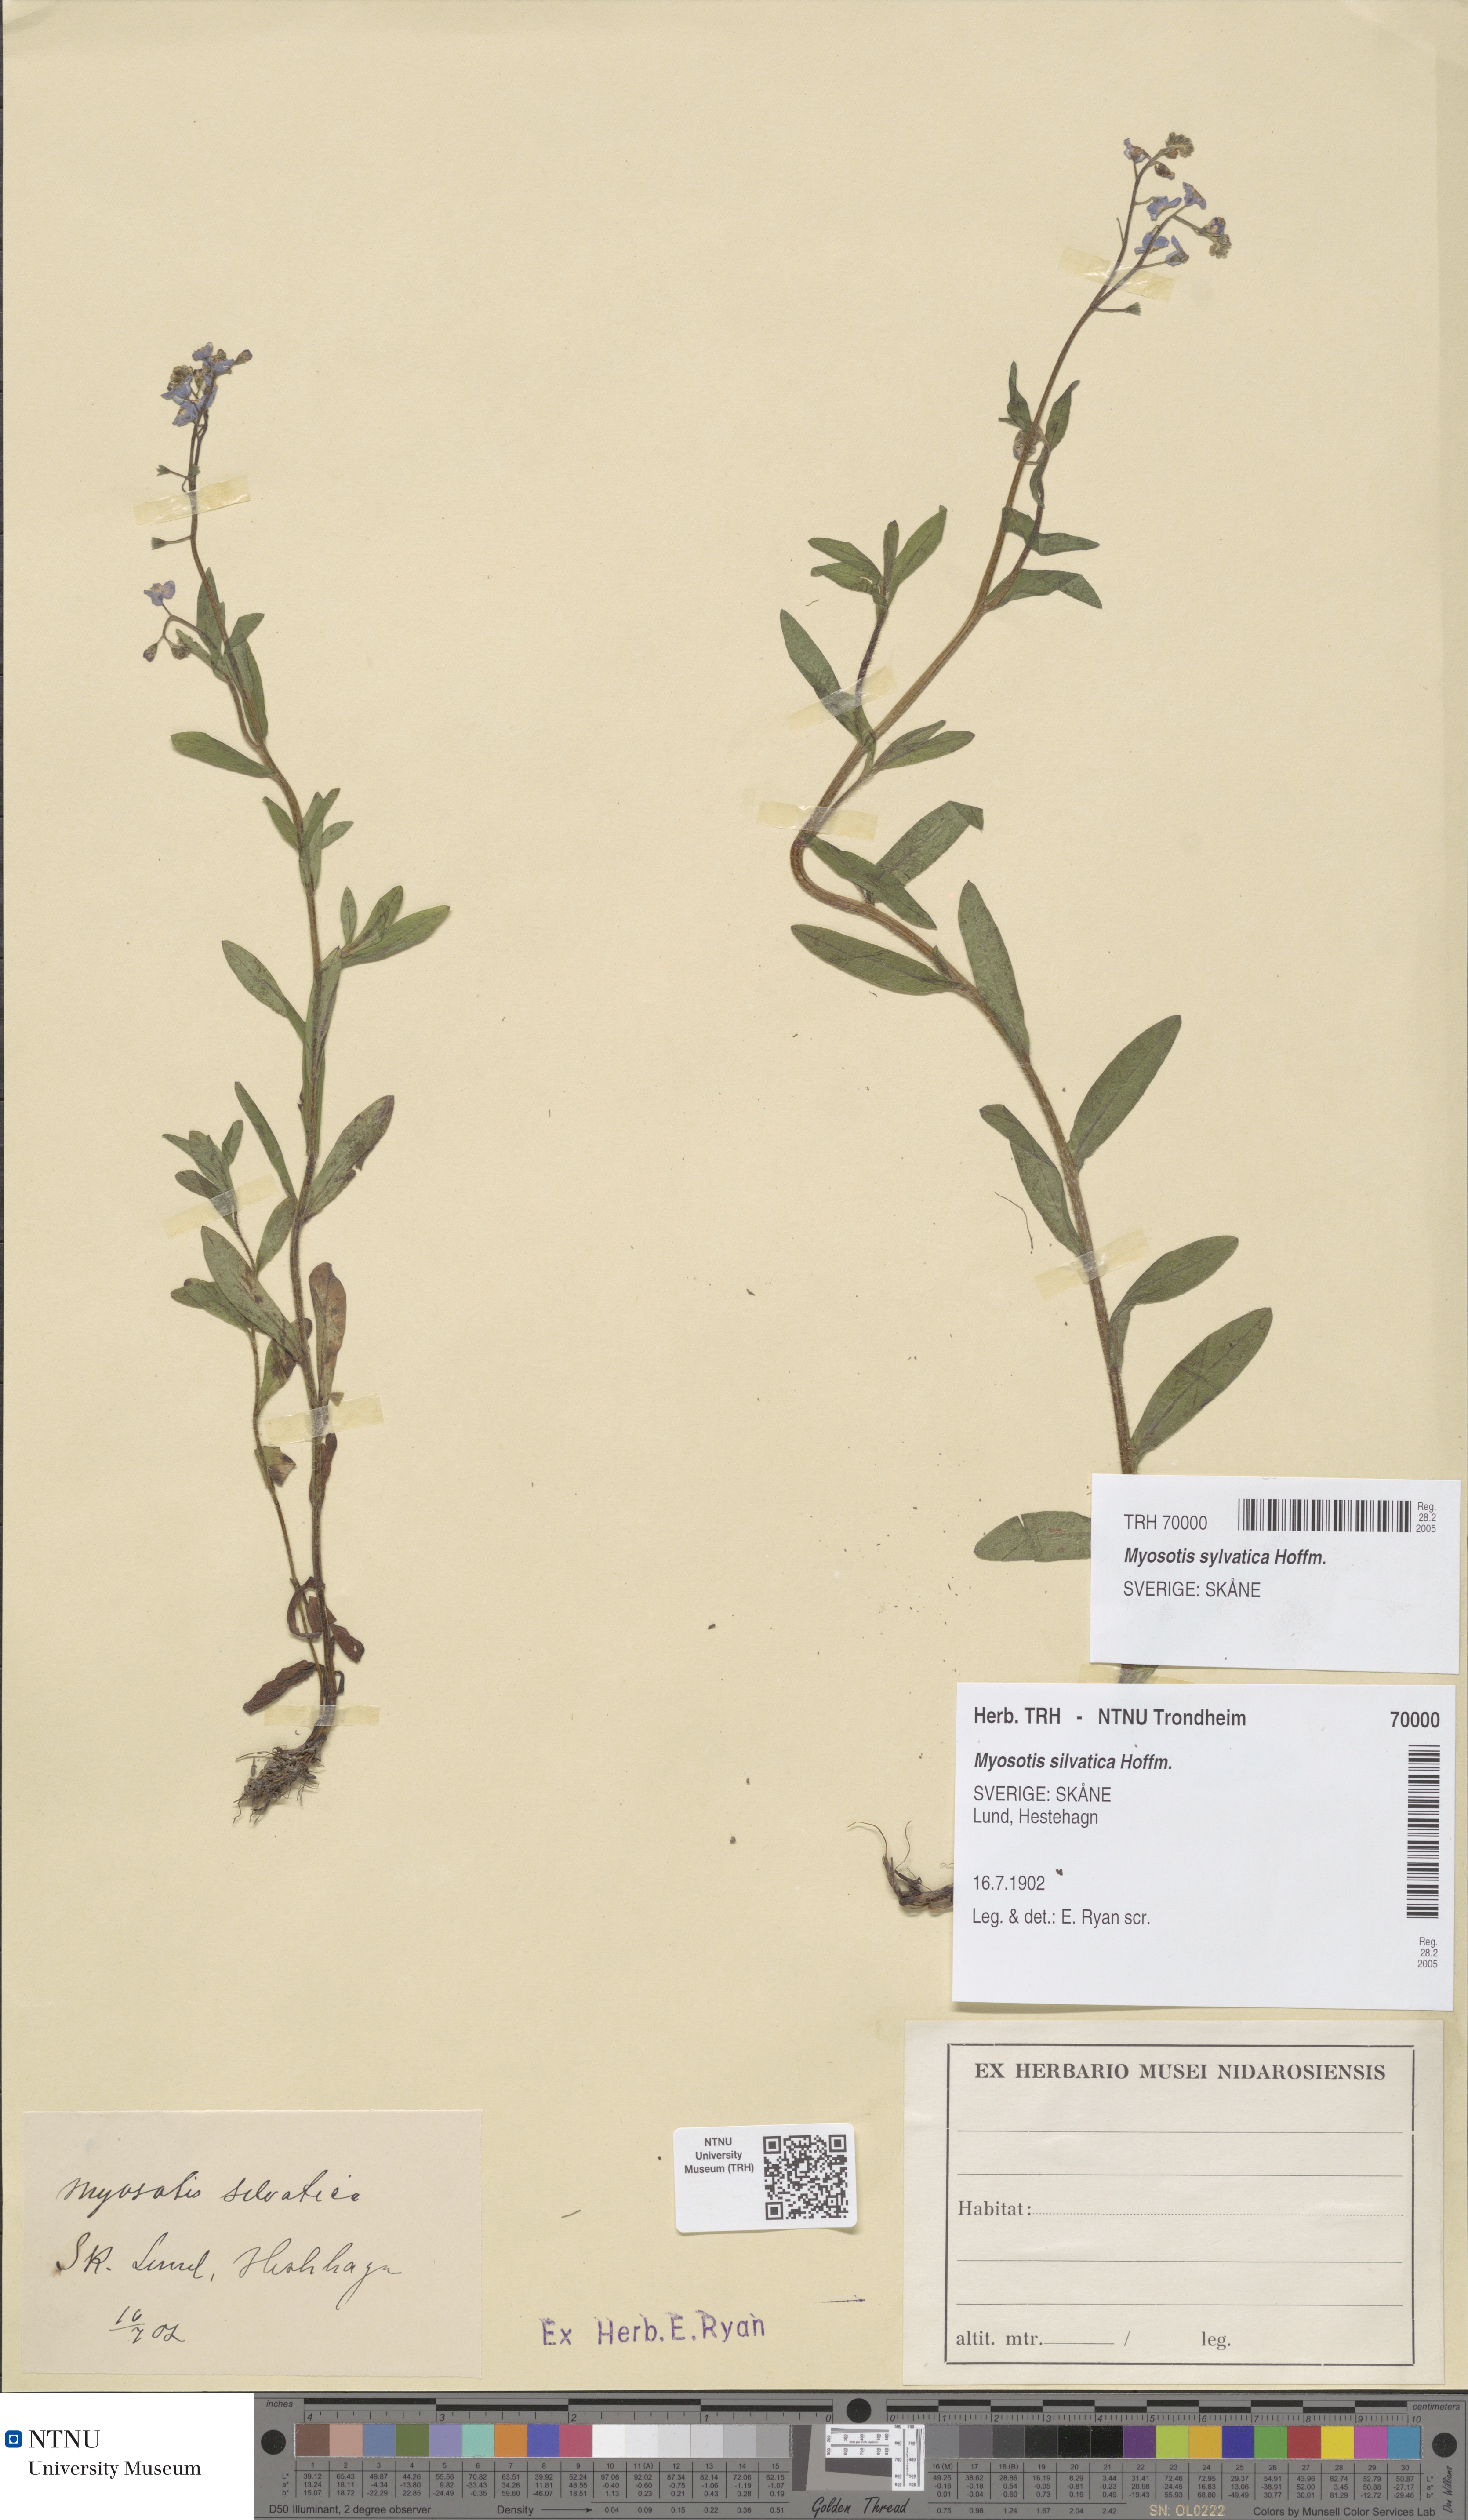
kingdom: Plantae
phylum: Tracheophyta
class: Magnoliopsida
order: Boraginales
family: Boraginaceae
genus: Myosotis
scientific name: Myosotis sylvatica
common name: Wood forget-me-not
